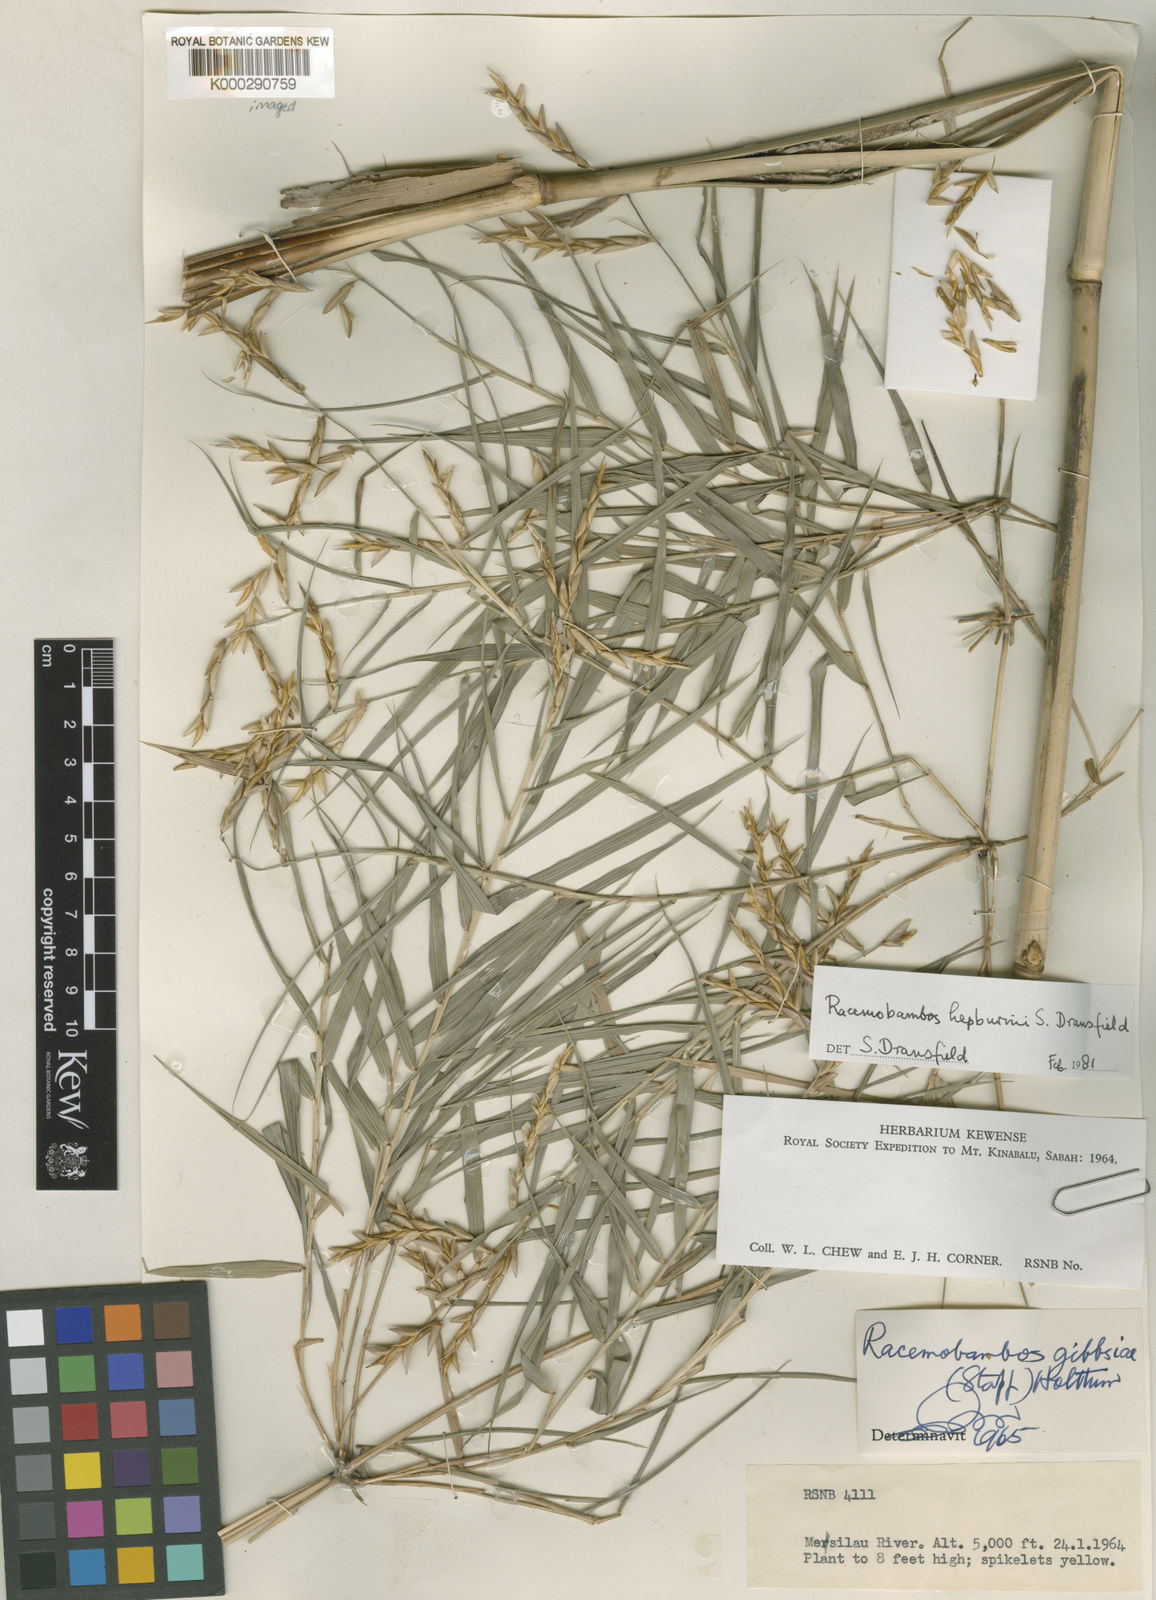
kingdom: Plantae
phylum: Tracheophyta
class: Liliopsida
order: Poales
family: Poaceae
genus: Racemobambos
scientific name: Racemobambos hepburnii
